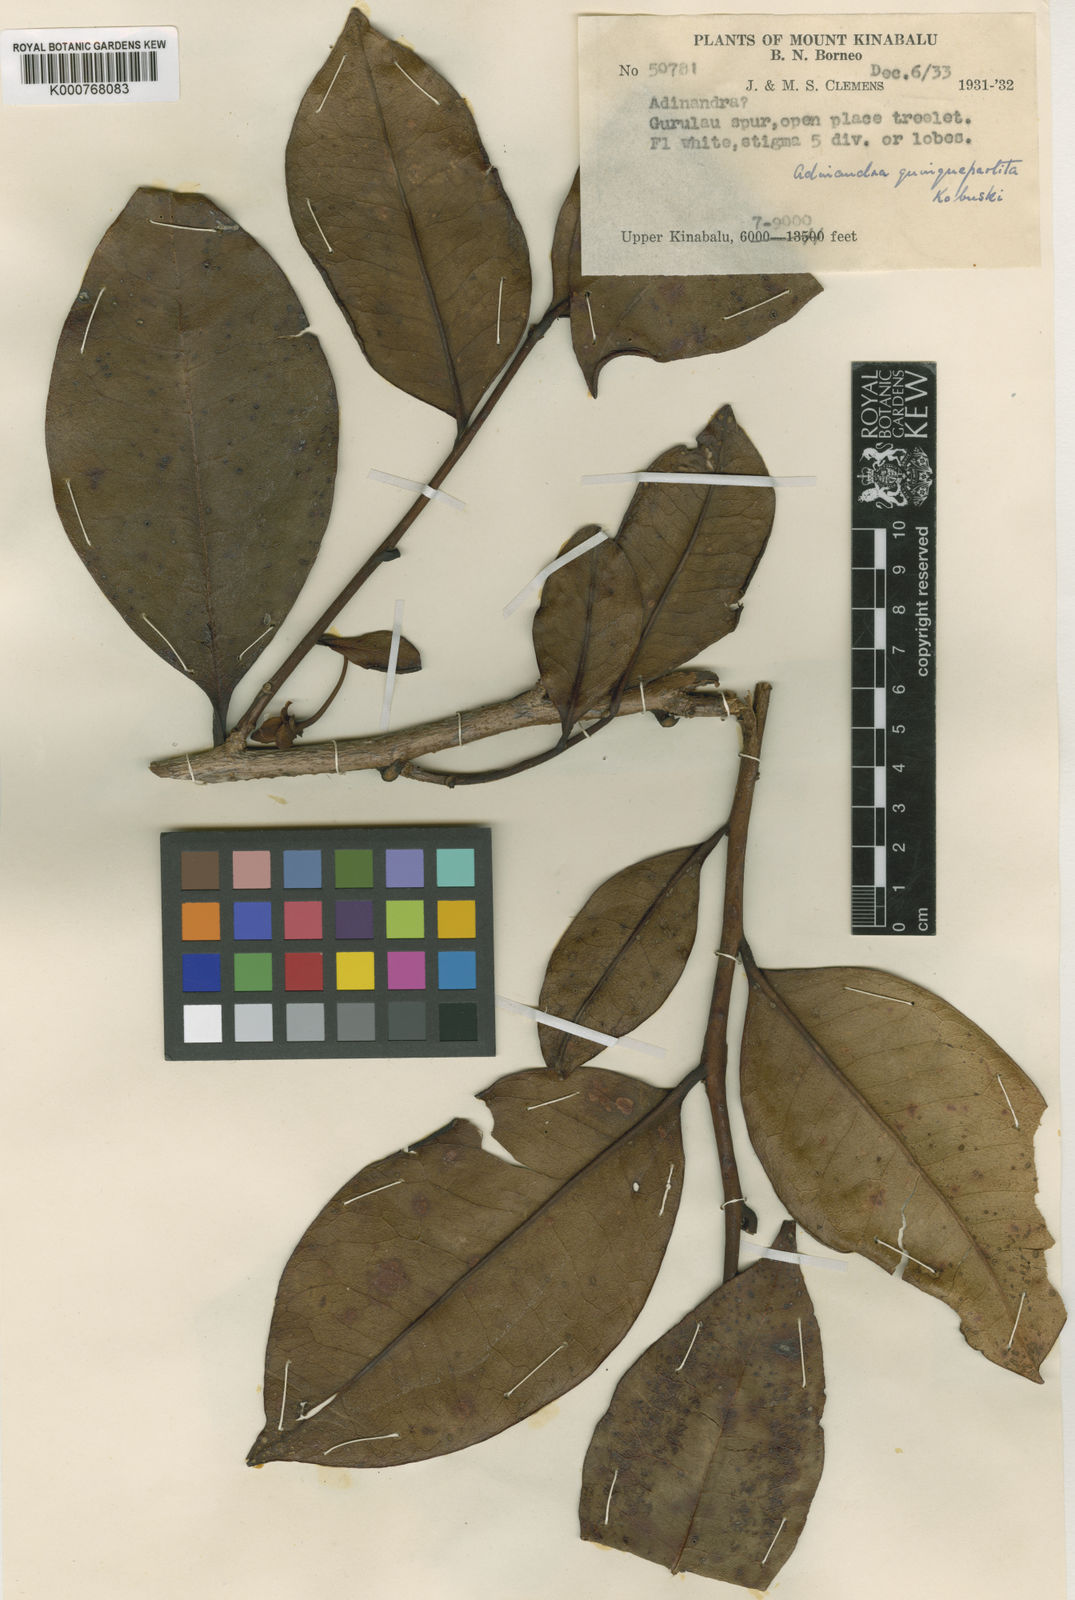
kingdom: Plantae
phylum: Tracheophyta
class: Magnoliopsida
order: Ericales
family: Pentaphylacaceae
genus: Adinandra
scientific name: Adinandra impressa
